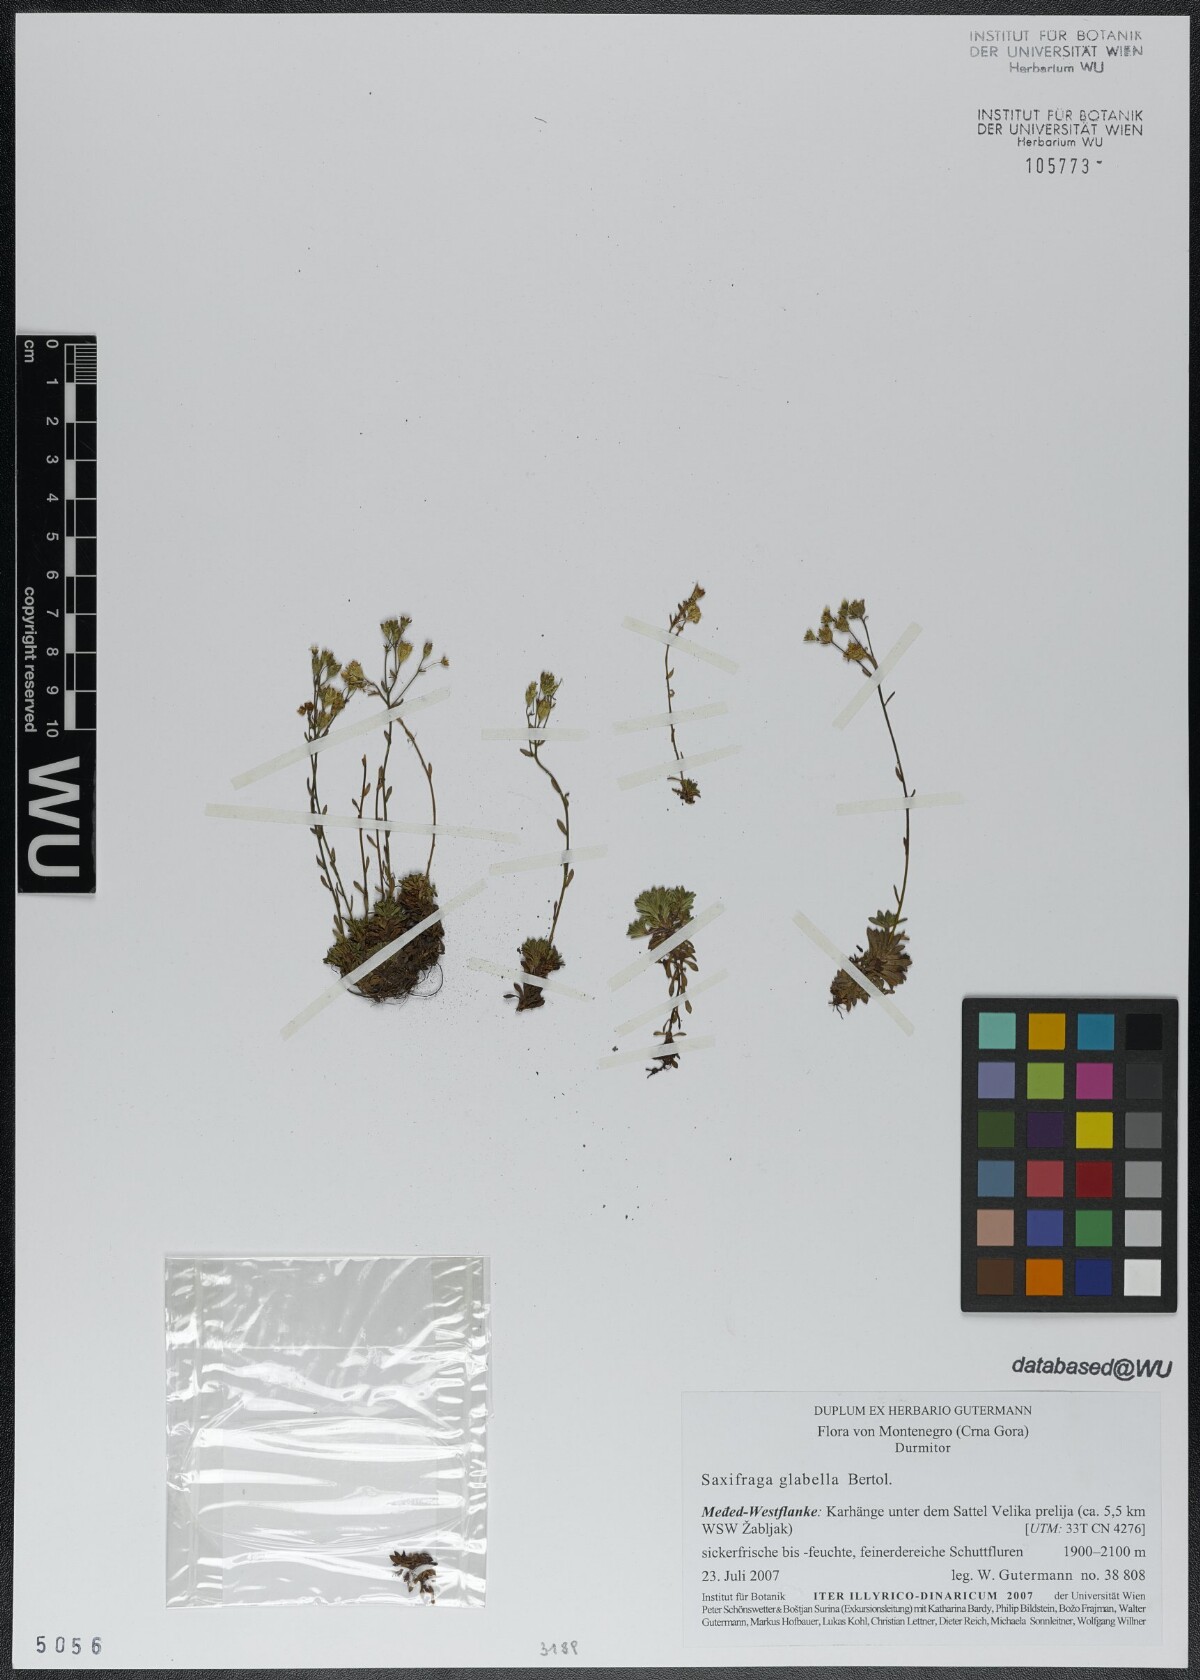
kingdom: Plantae
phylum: Tracheophyta
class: Magnoliopsida
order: Saxifragales
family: Saxifragaceae
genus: Saxifraga
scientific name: Saxifraga glabella
